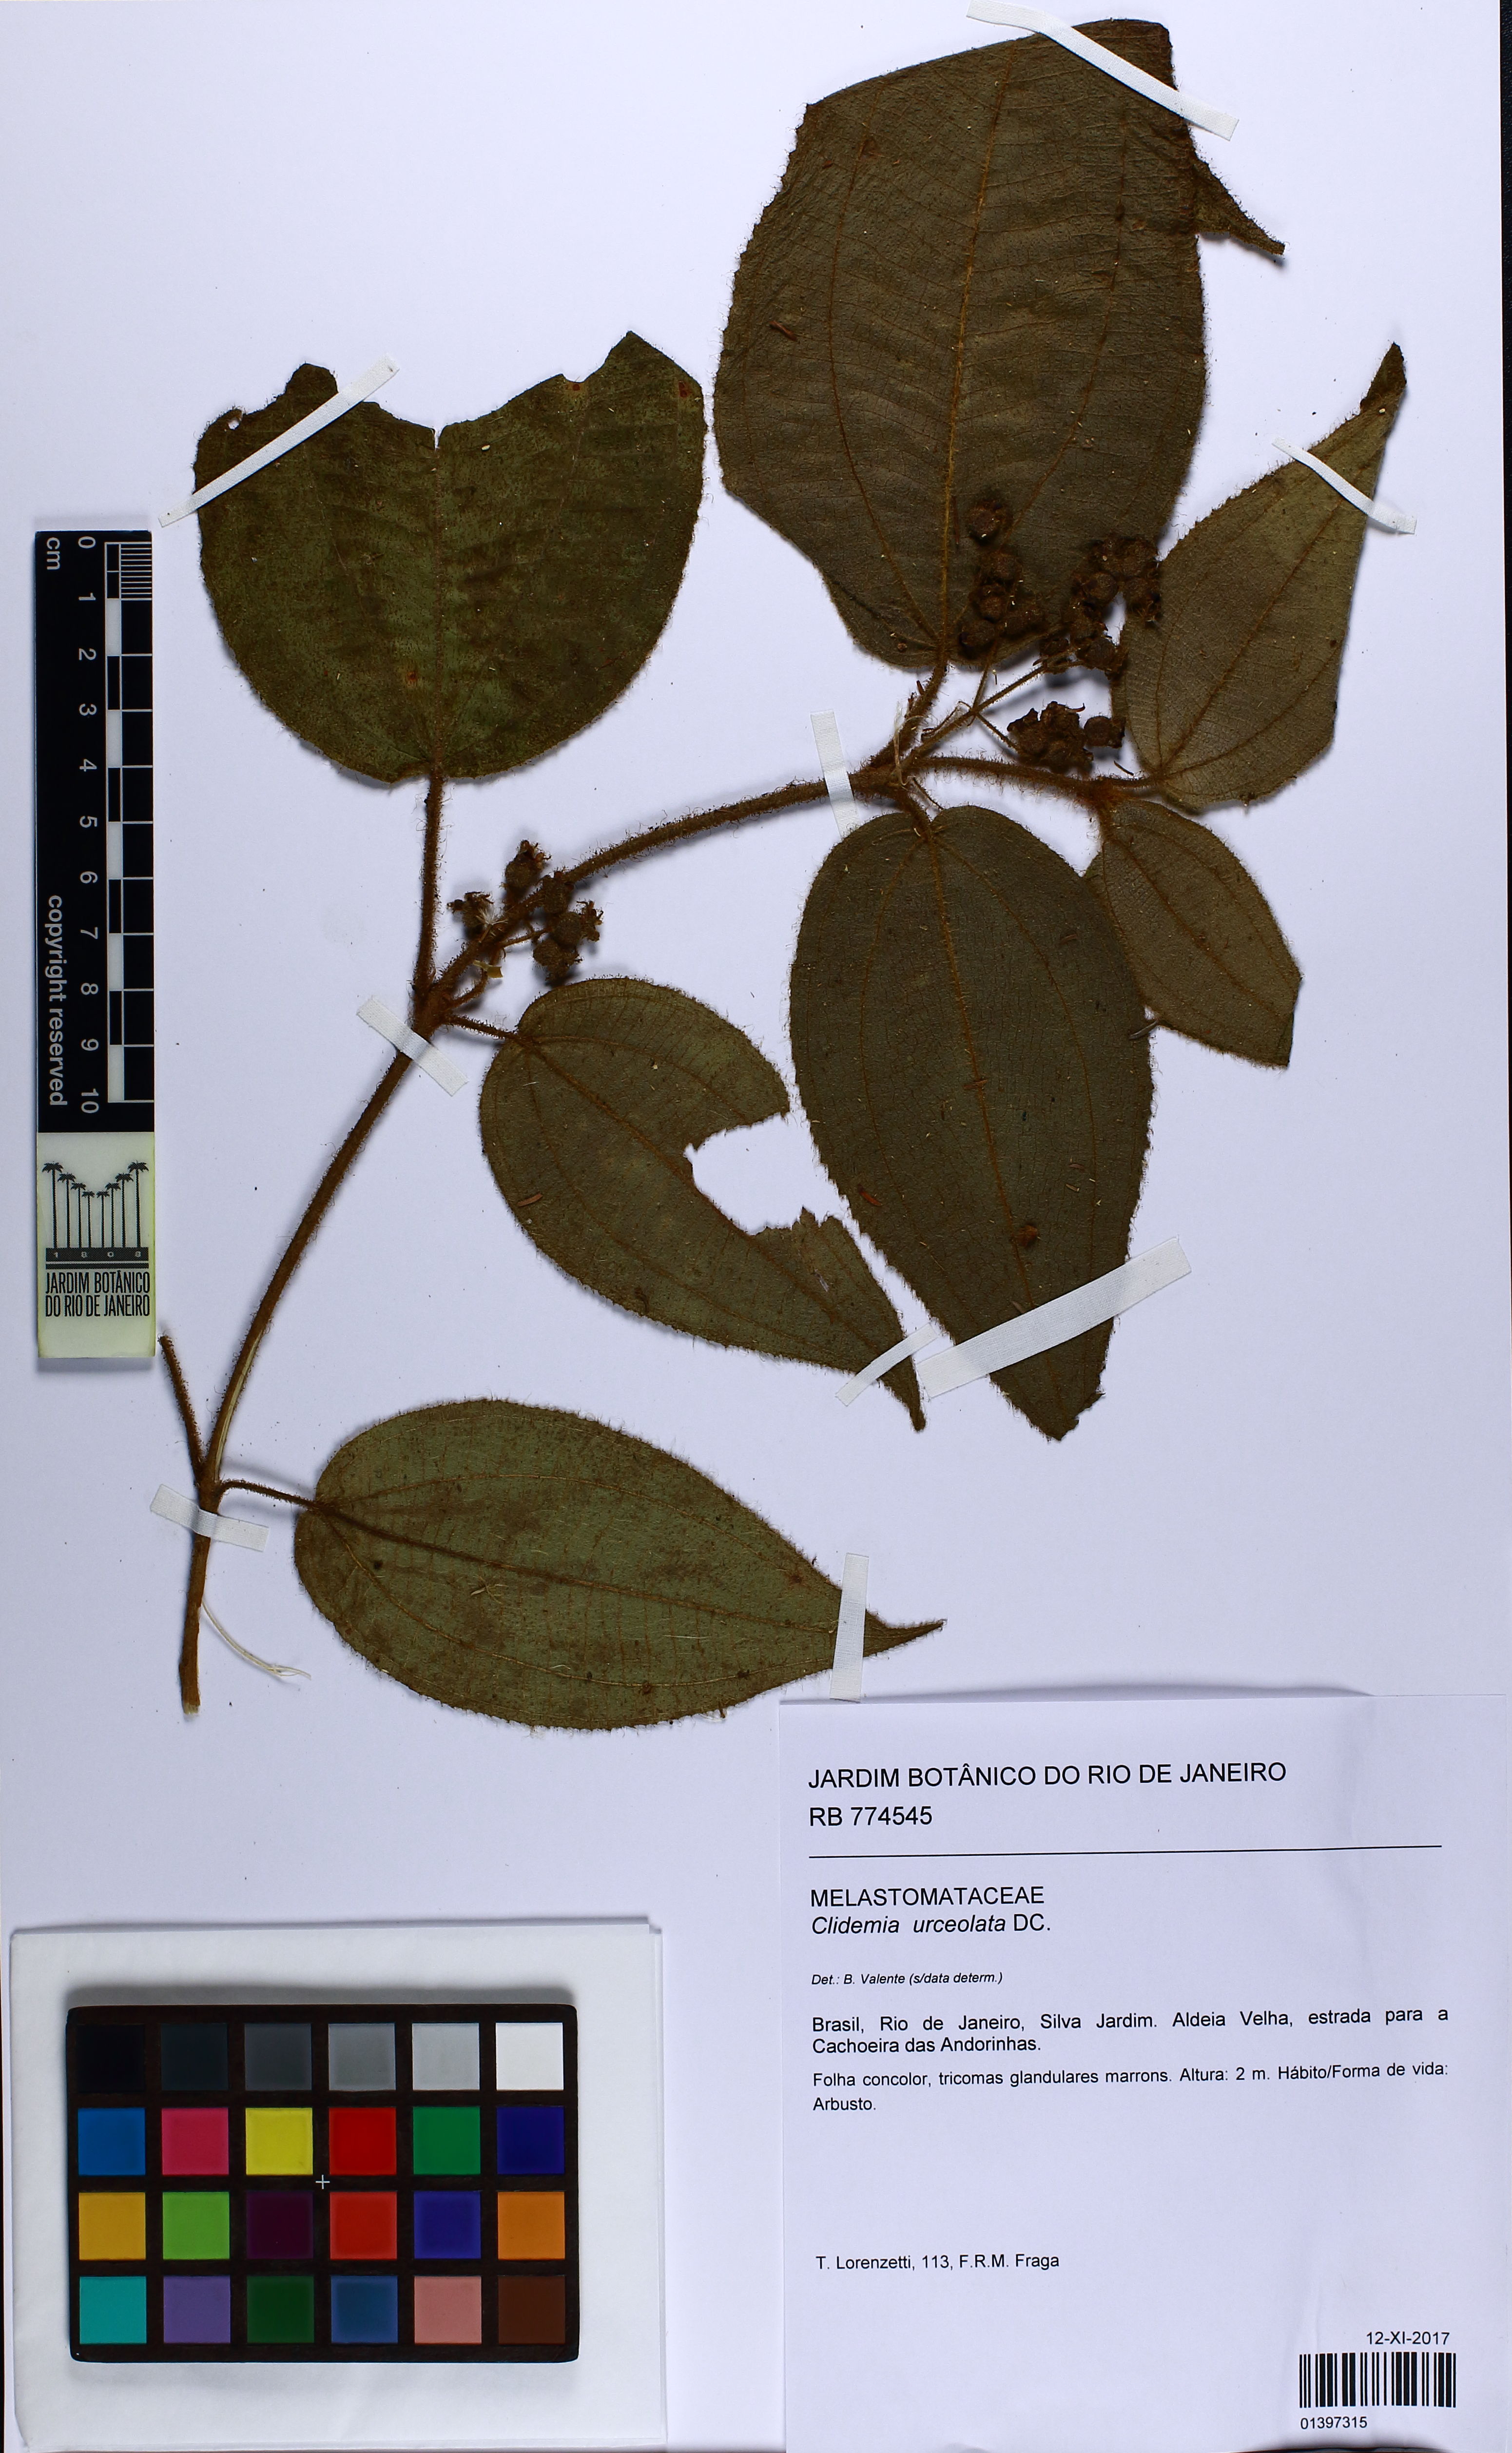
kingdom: Plantae
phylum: Tracheophyta
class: Magnoliopsida
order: Myrtales
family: Melastomataceae
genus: Miconia
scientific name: Miconia neourceolata
